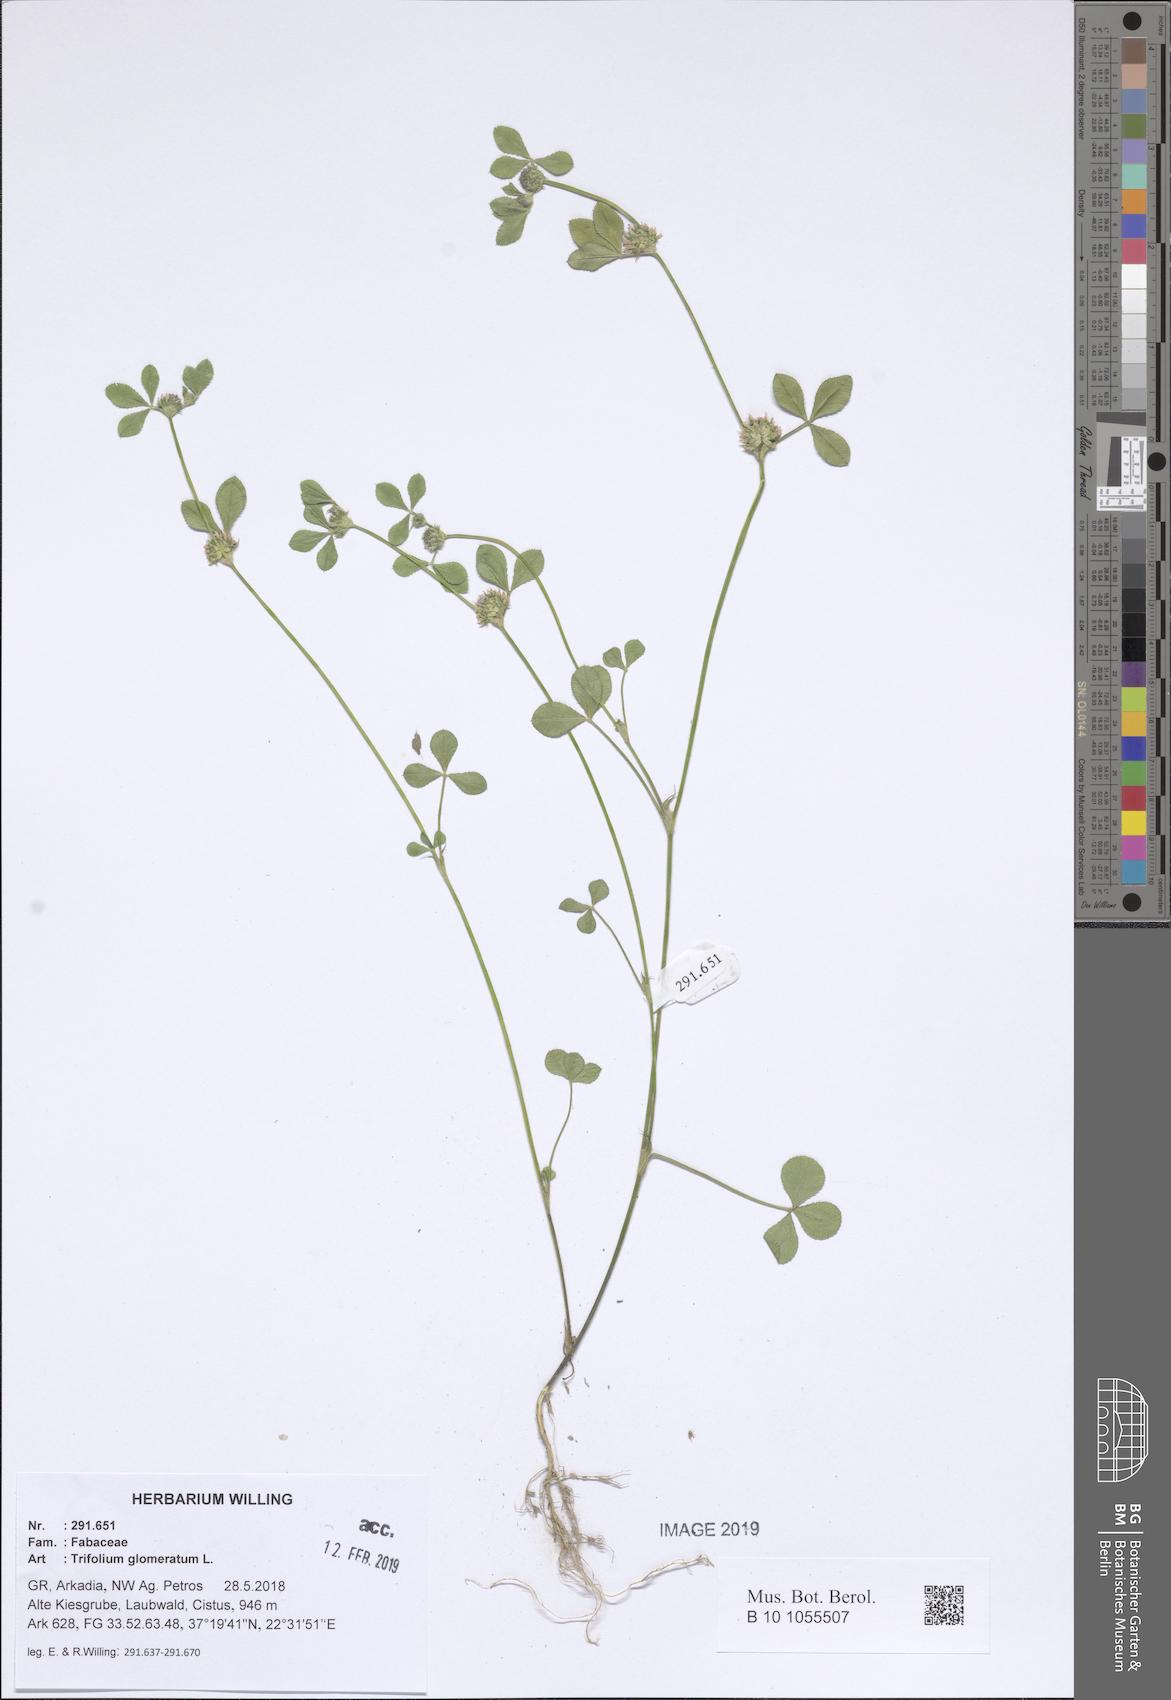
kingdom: Plantae
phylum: Tracheophyta
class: Magnoliopsida
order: Fabales
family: Fabaceae
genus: Trifolium
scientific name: Trifolium glomeratum
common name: Clustered clover
